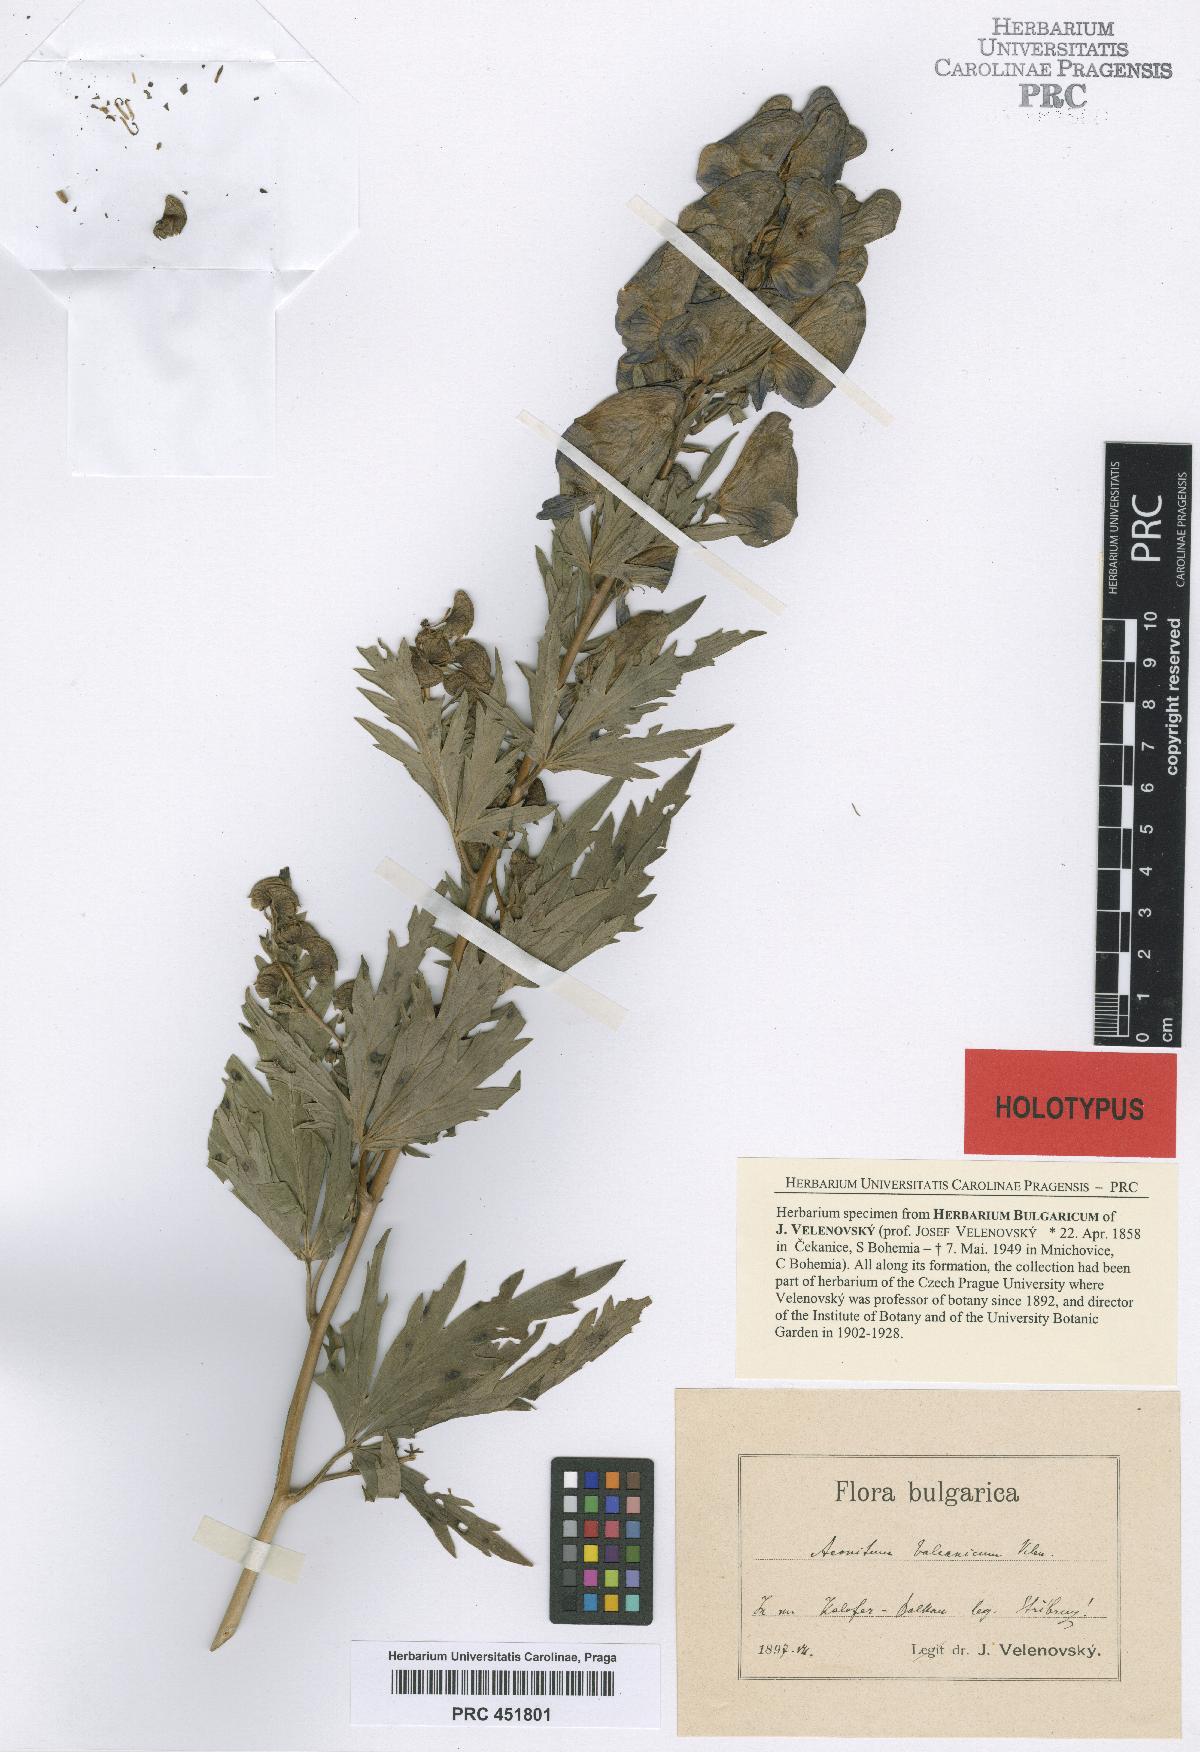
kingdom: Plantae
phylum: Tracheophyta
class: Magnoliopsida
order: Ranunculales
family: Ranunculaceae
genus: Aconitum
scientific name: Aconitum variegatum
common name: Manchurian monkshood
